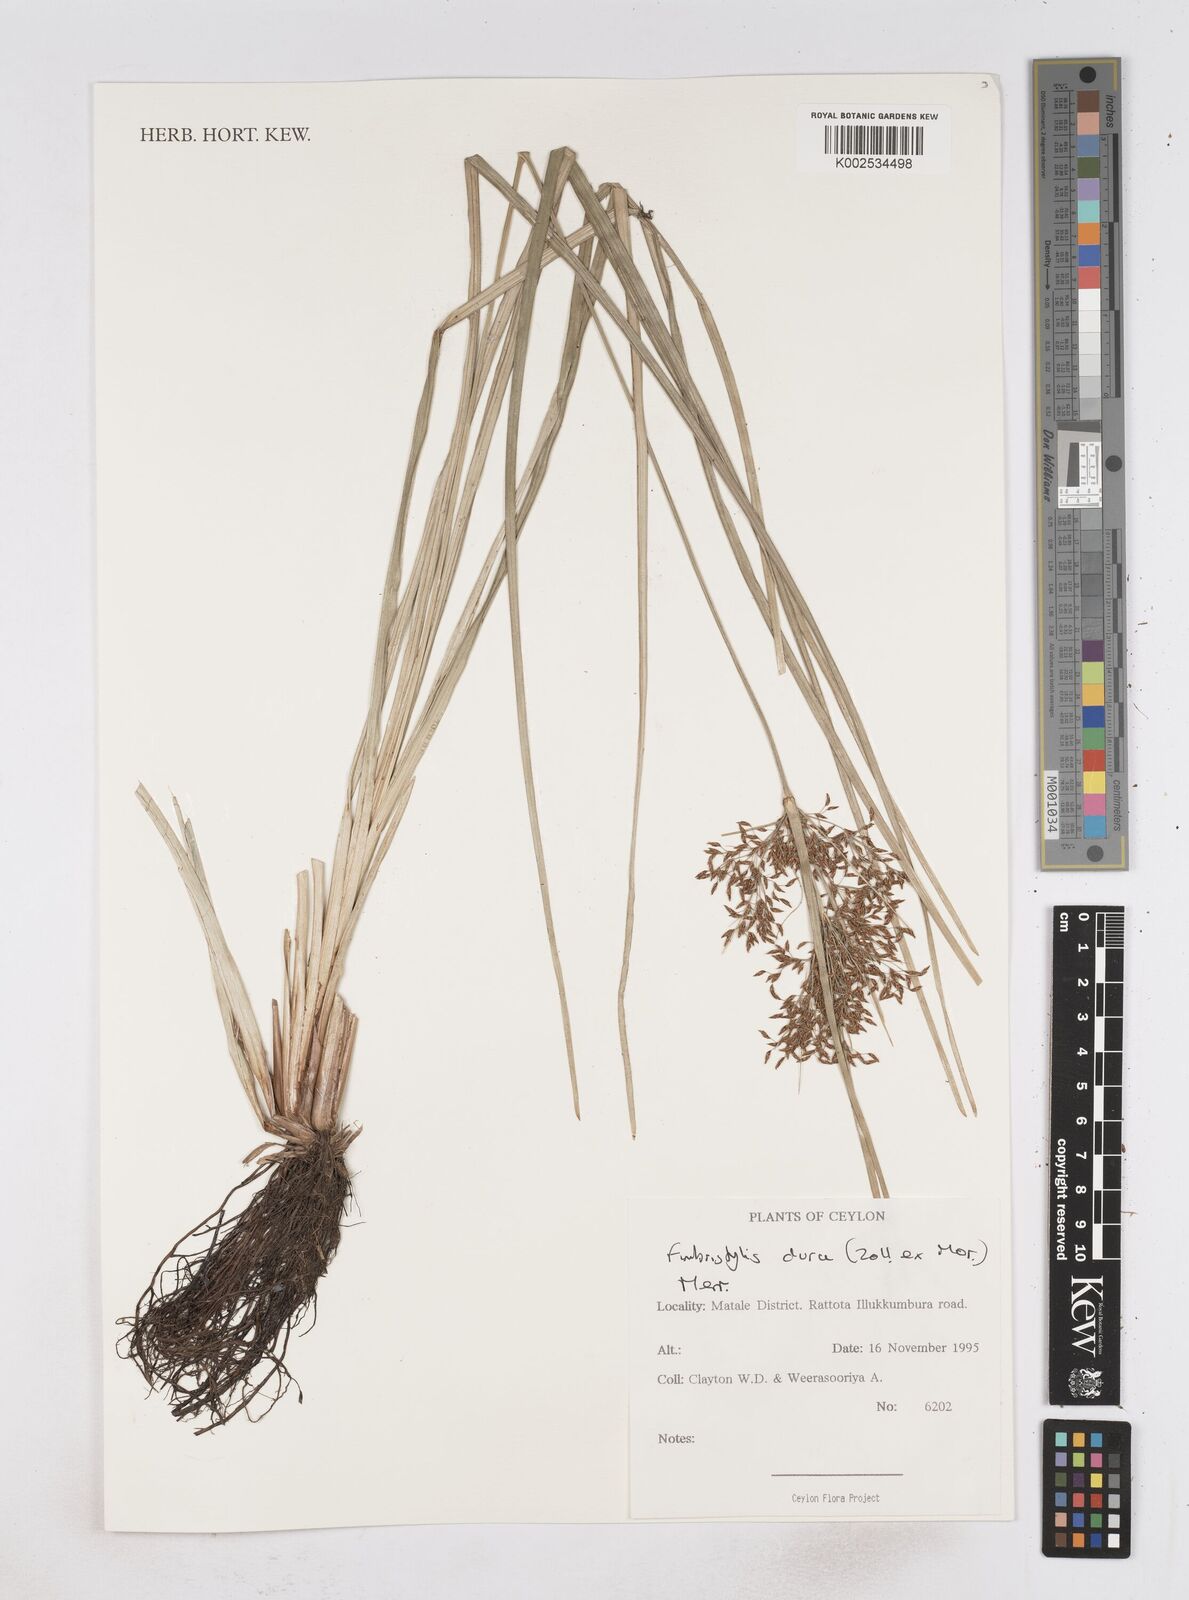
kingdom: Plantae
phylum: Tracheophyta
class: Liliopsida
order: Poales
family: Cyperaceae
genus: Fimbristylis
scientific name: Fimbristylis dura
